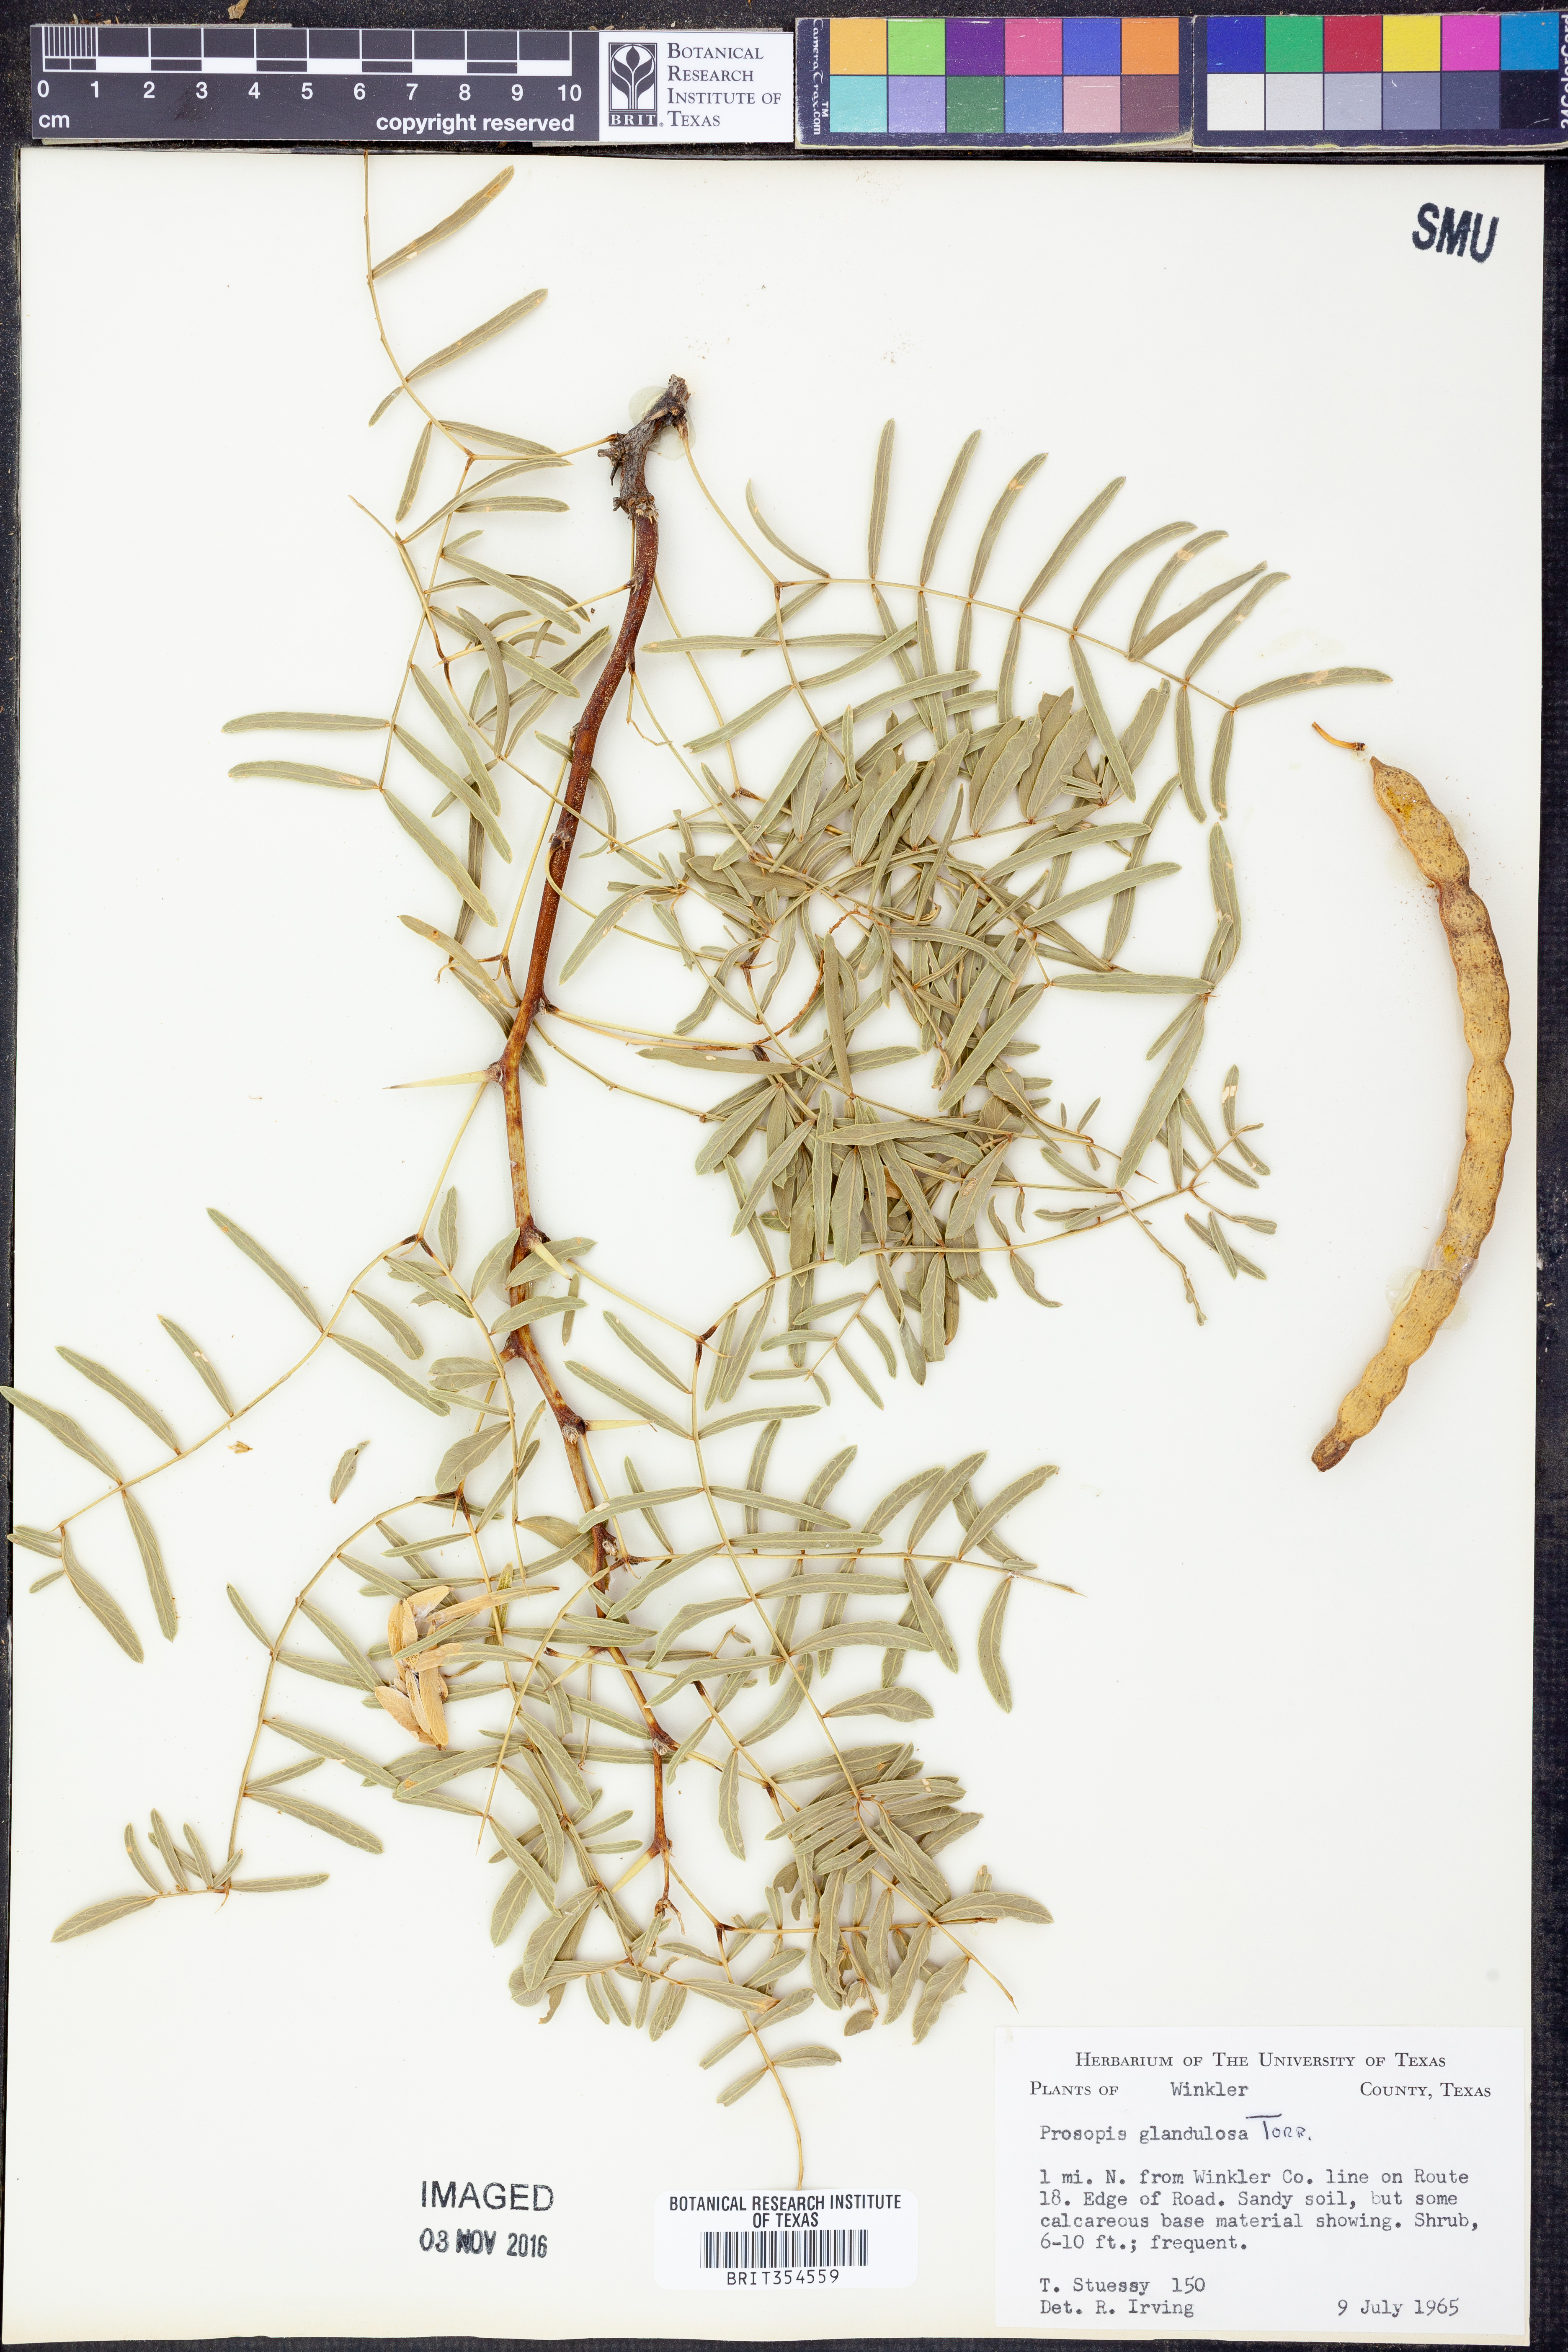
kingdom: Plantae
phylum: Tracheophyta
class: Magnoliopsida
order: Fabales
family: Fabaceae
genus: Prosopis
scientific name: Prosopis glandulosa
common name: Honey mesquite
